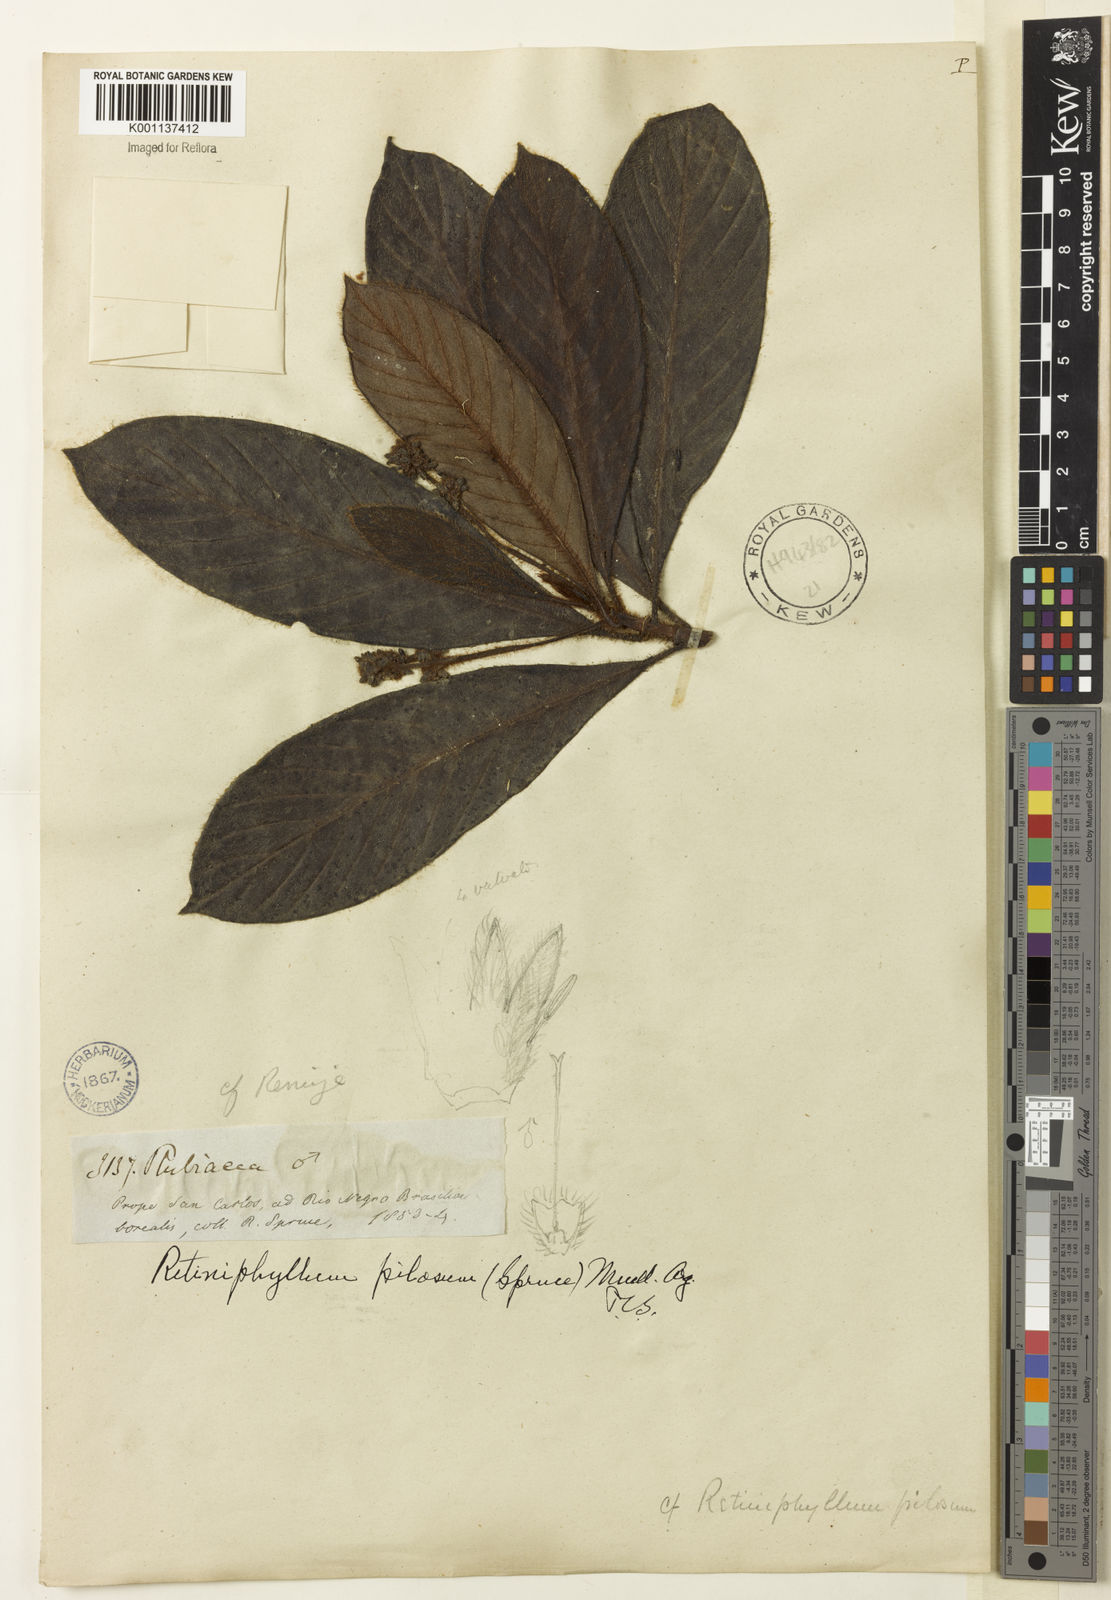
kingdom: Plantae
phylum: Tracheophyta
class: Magnoliopsida
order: Gentianales
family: Rubiaceae
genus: Retiniphyllum
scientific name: Retiniphyllum
